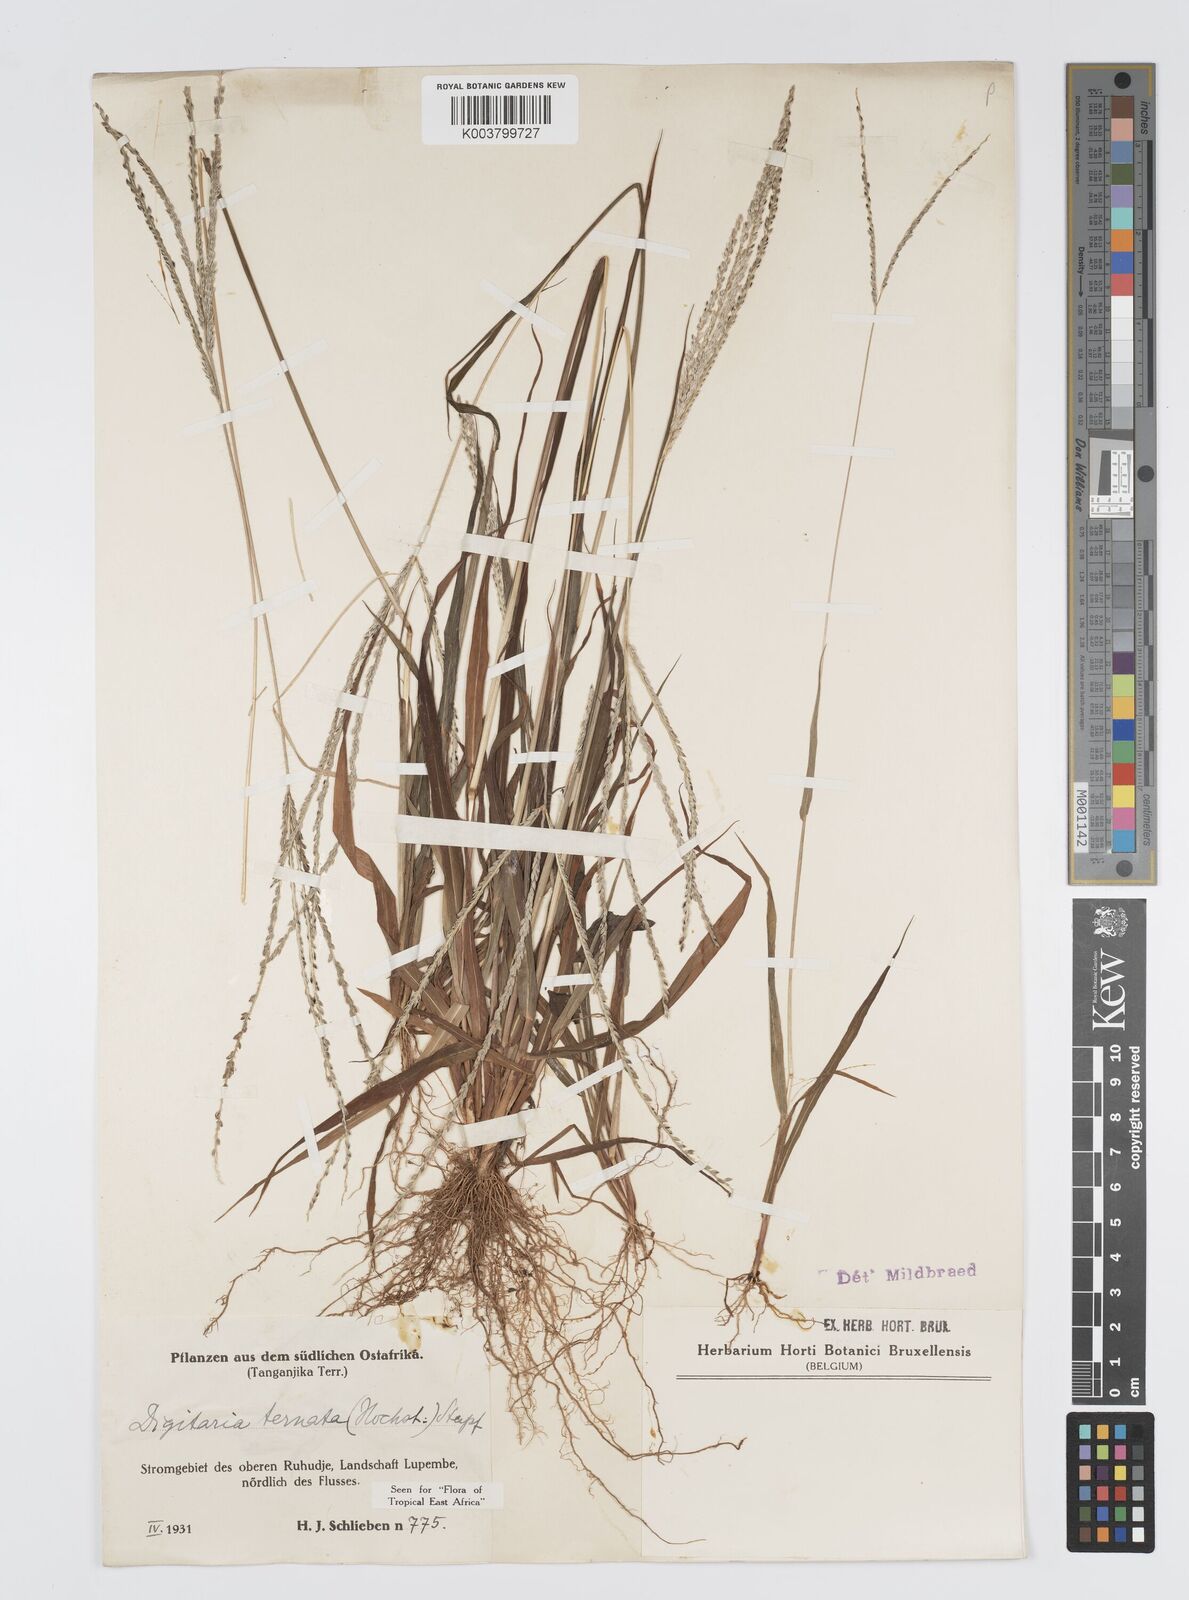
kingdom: Plantae
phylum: Tracheophyta
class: Liliopsida
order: Poales
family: Poaceae
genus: Digitaria
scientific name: Digitaria ternata
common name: Blackseed crabgrass
